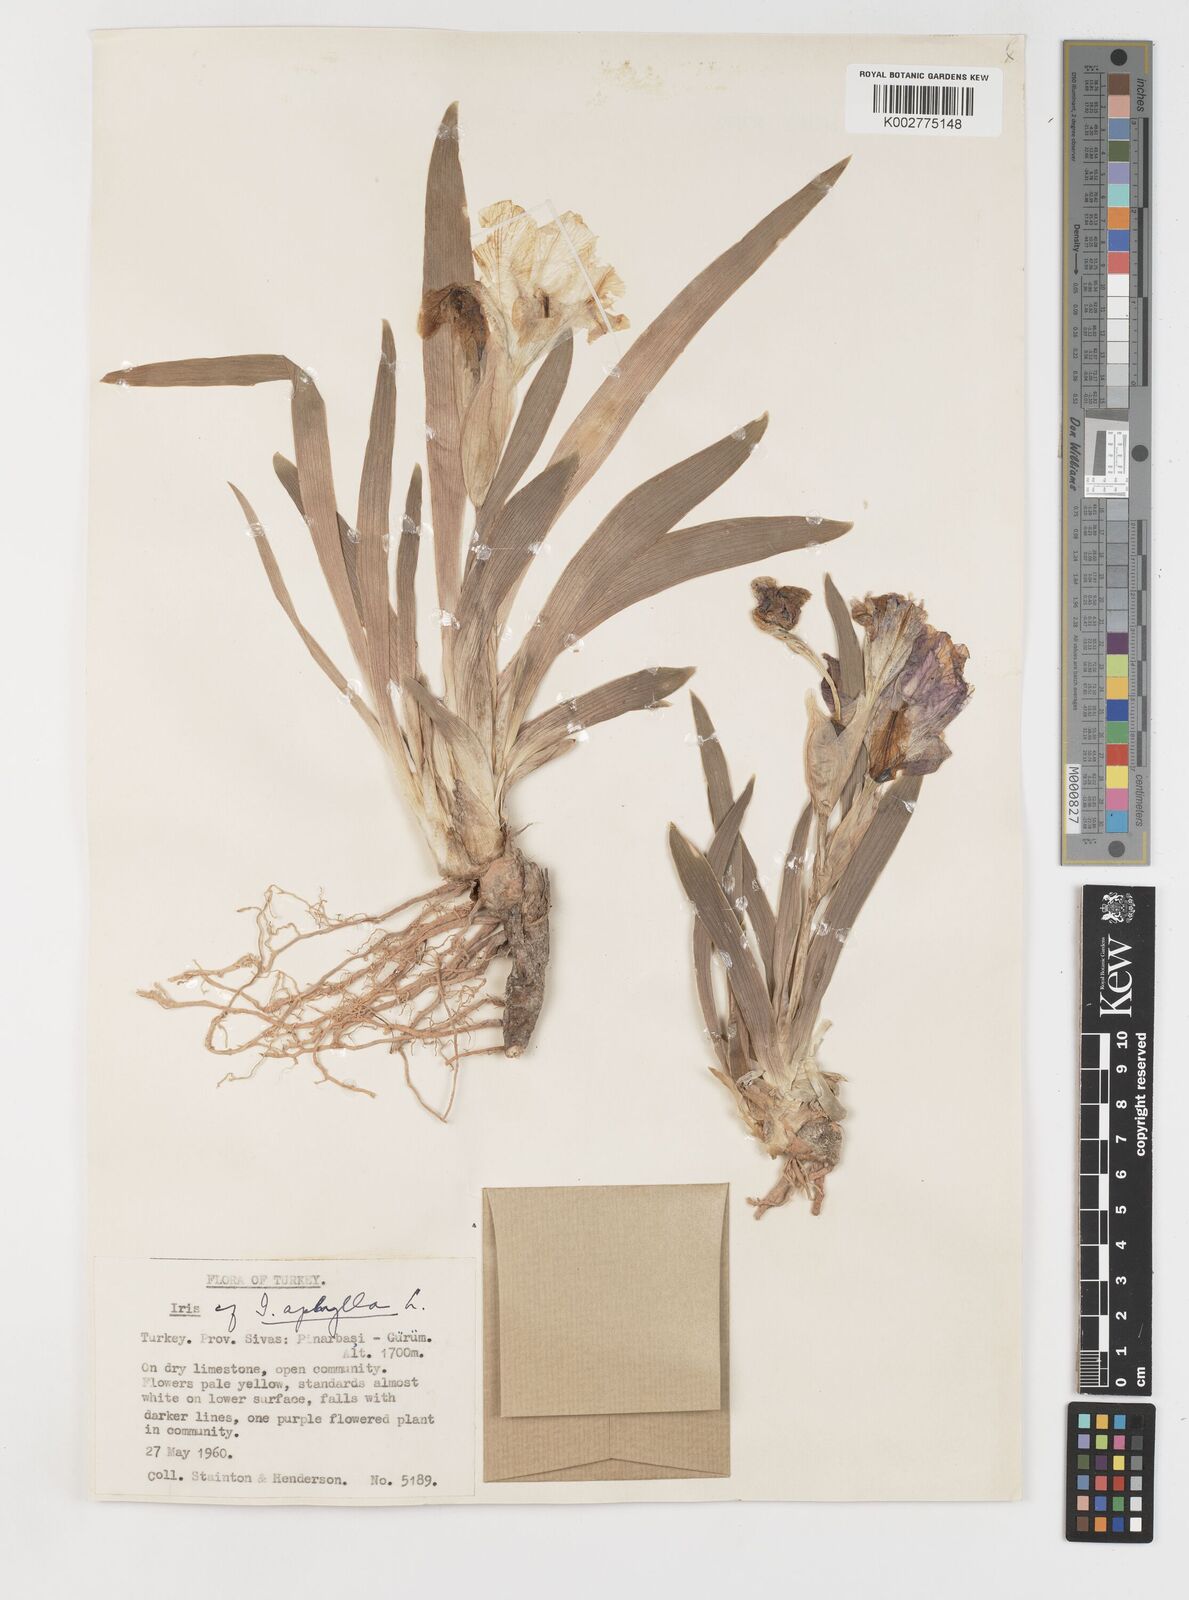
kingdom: Plantae
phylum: Tracheophyta
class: Liliopsida
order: Asparagales
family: Iridaceae
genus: Iris
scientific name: Iris schachtii
